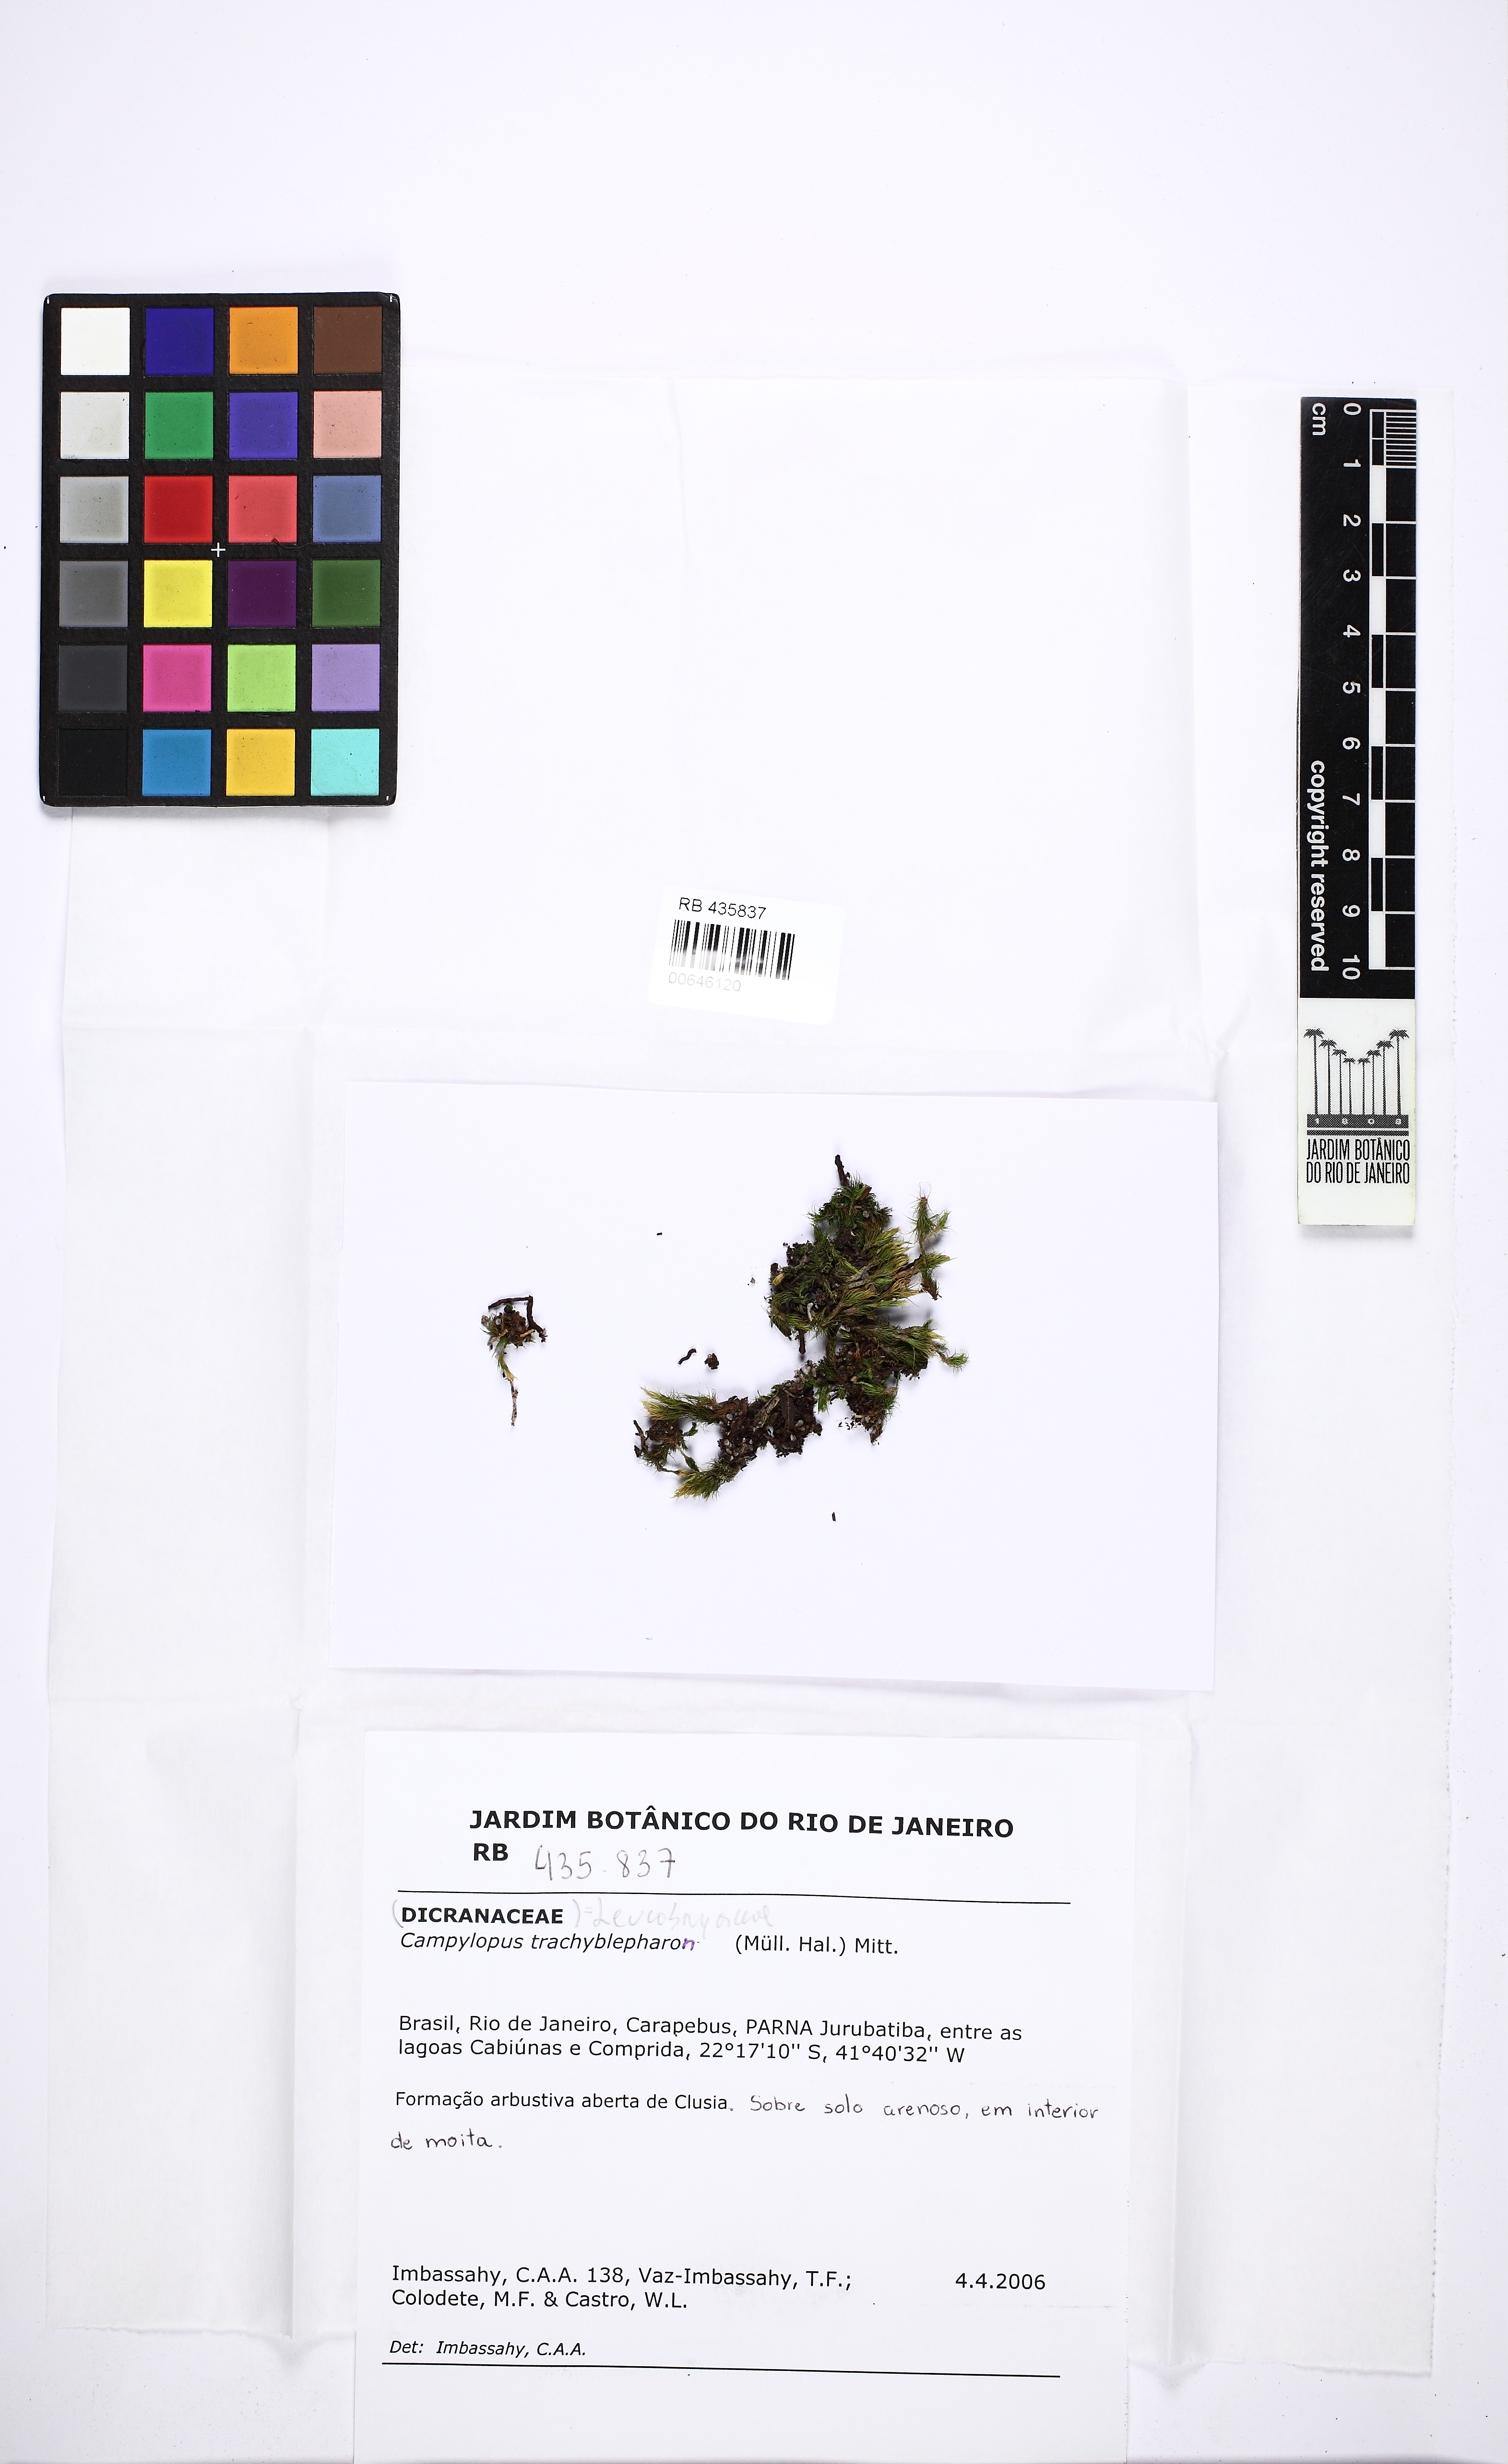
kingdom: Plantae
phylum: Bryophyta
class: Bryopsida
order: Dicranales
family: Leucobryaceae
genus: Campylopus
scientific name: Campylopus trachyblepharon
